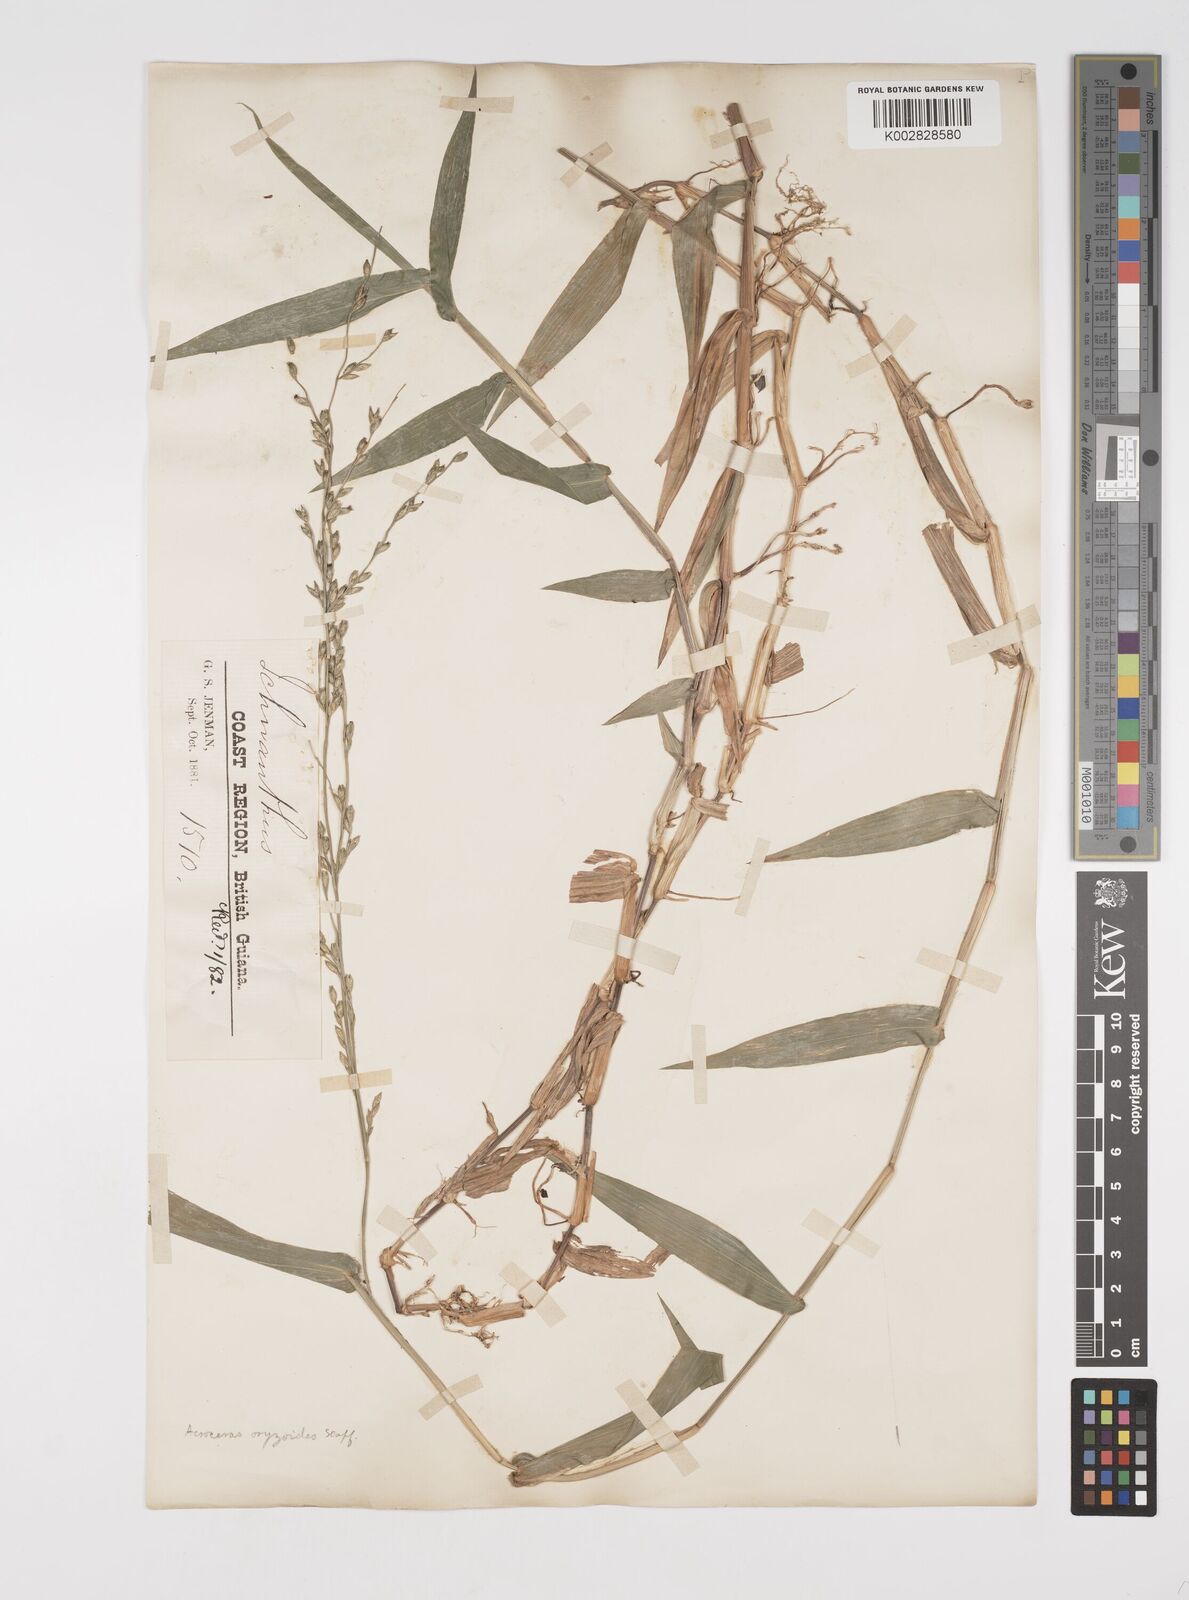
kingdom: Plantae
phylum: Tracheophyta
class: Liliopsida
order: Poales
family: Poaceae
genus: Acroceras
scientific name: Acroceras zizanioides
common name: Oat grass
